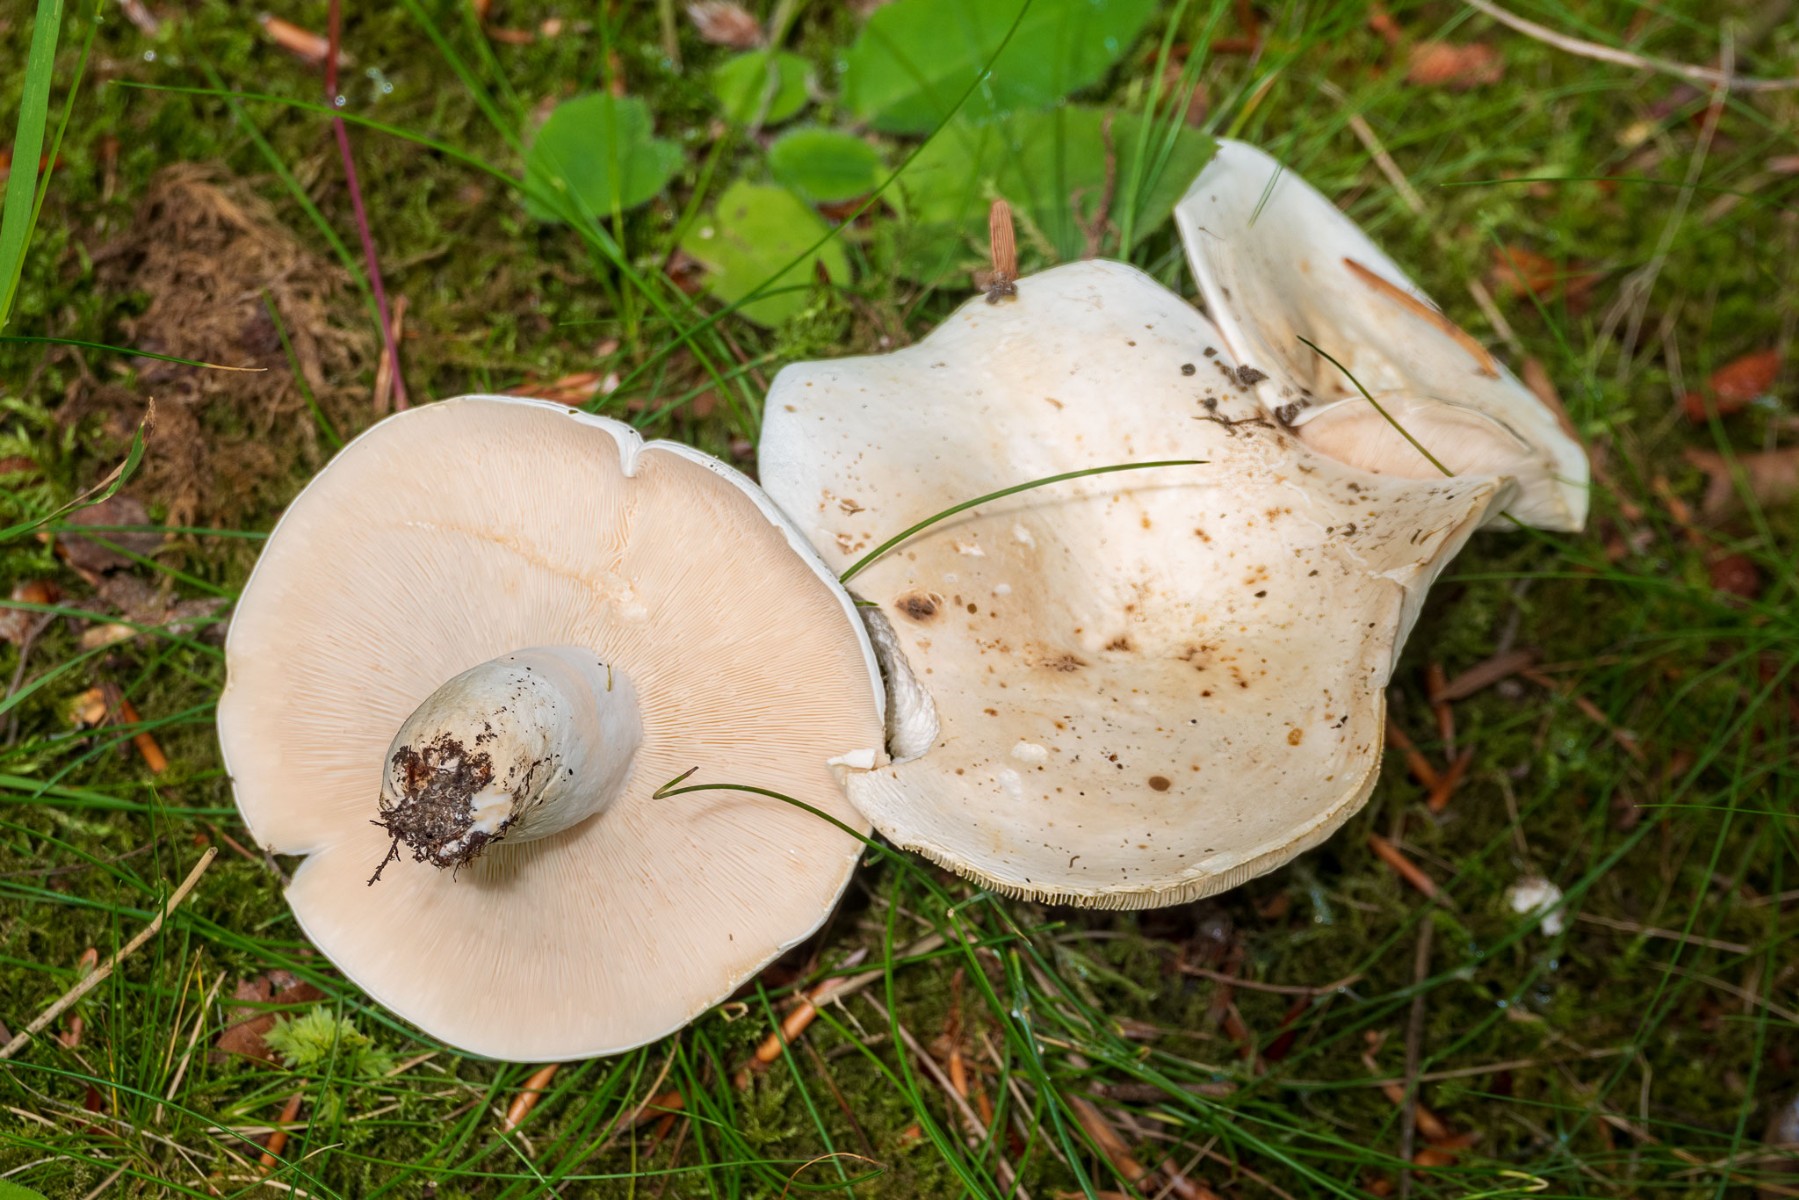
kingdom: Fungi
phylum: Basidiomycota
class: Agaricomycetes
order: Russulales
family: Russulaceae
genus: Lactifluus
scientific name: Lactifluus piperatus
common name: peber-mælkehat
